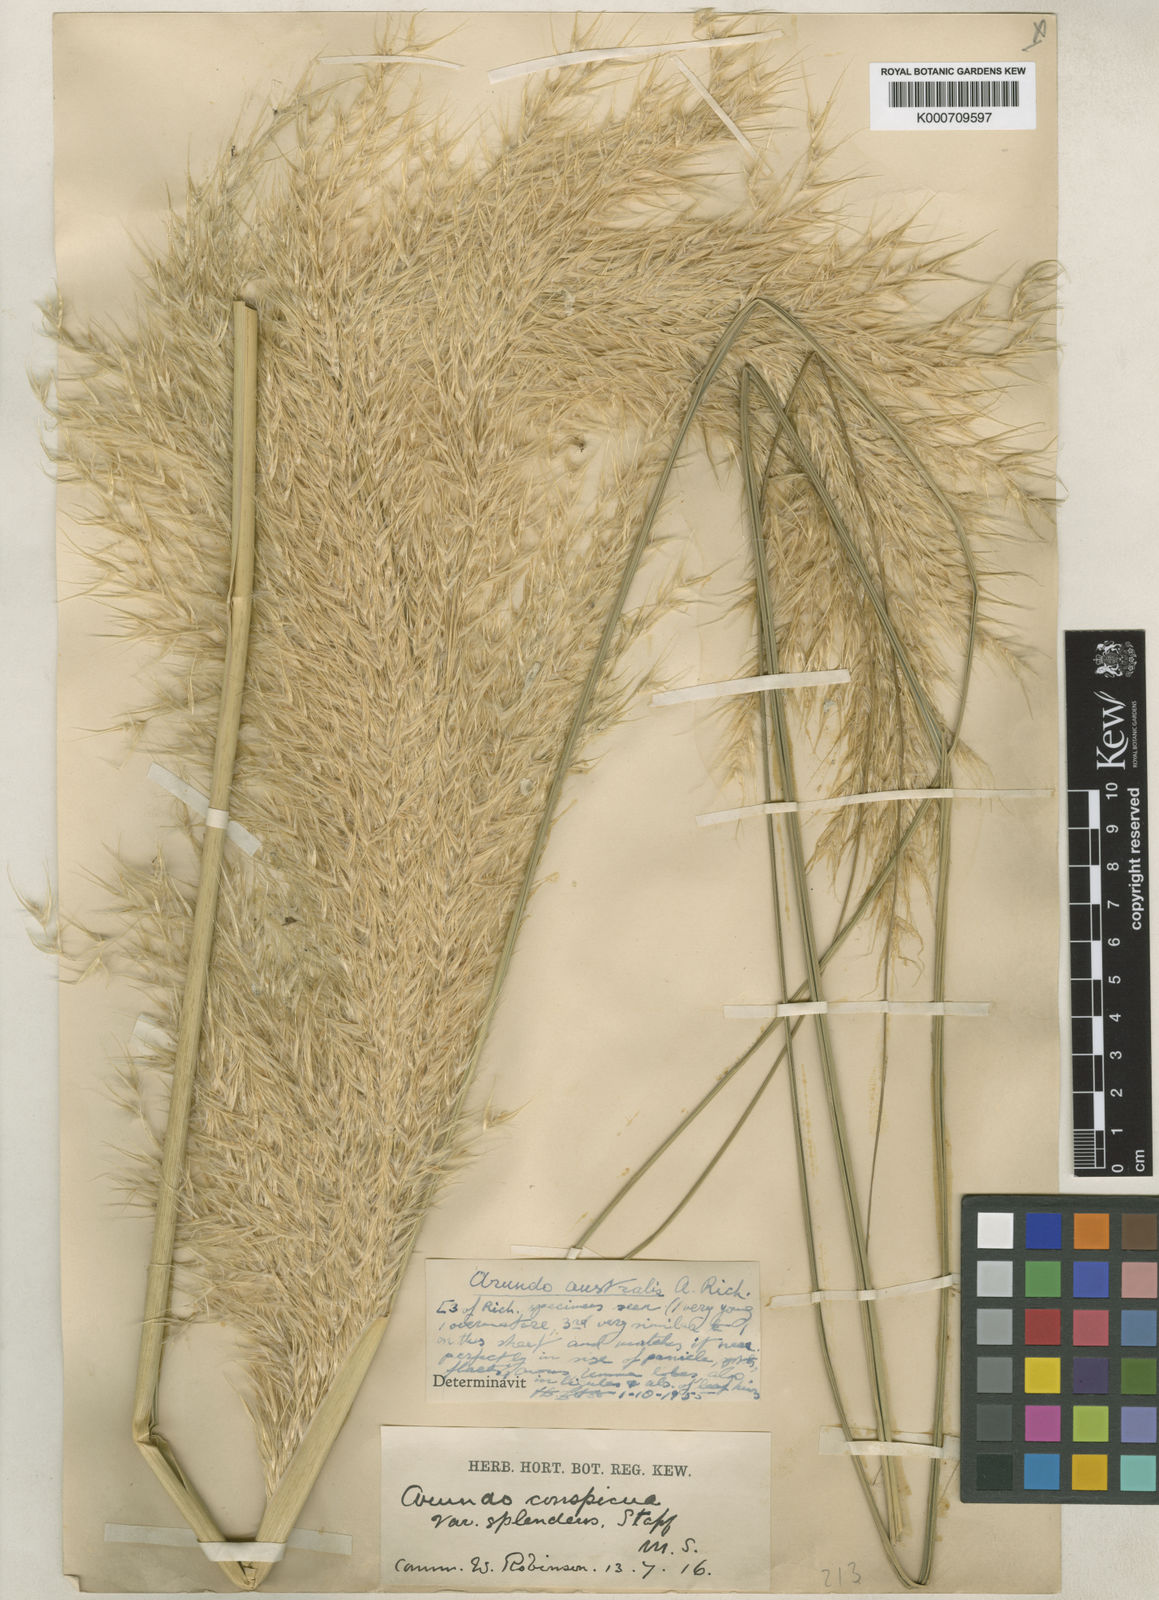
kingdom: Plantae
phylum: Tracheophyta
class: Liliopsida
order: Poales
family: Poaceae
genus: Austroderia
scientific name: Austroderia richardii
